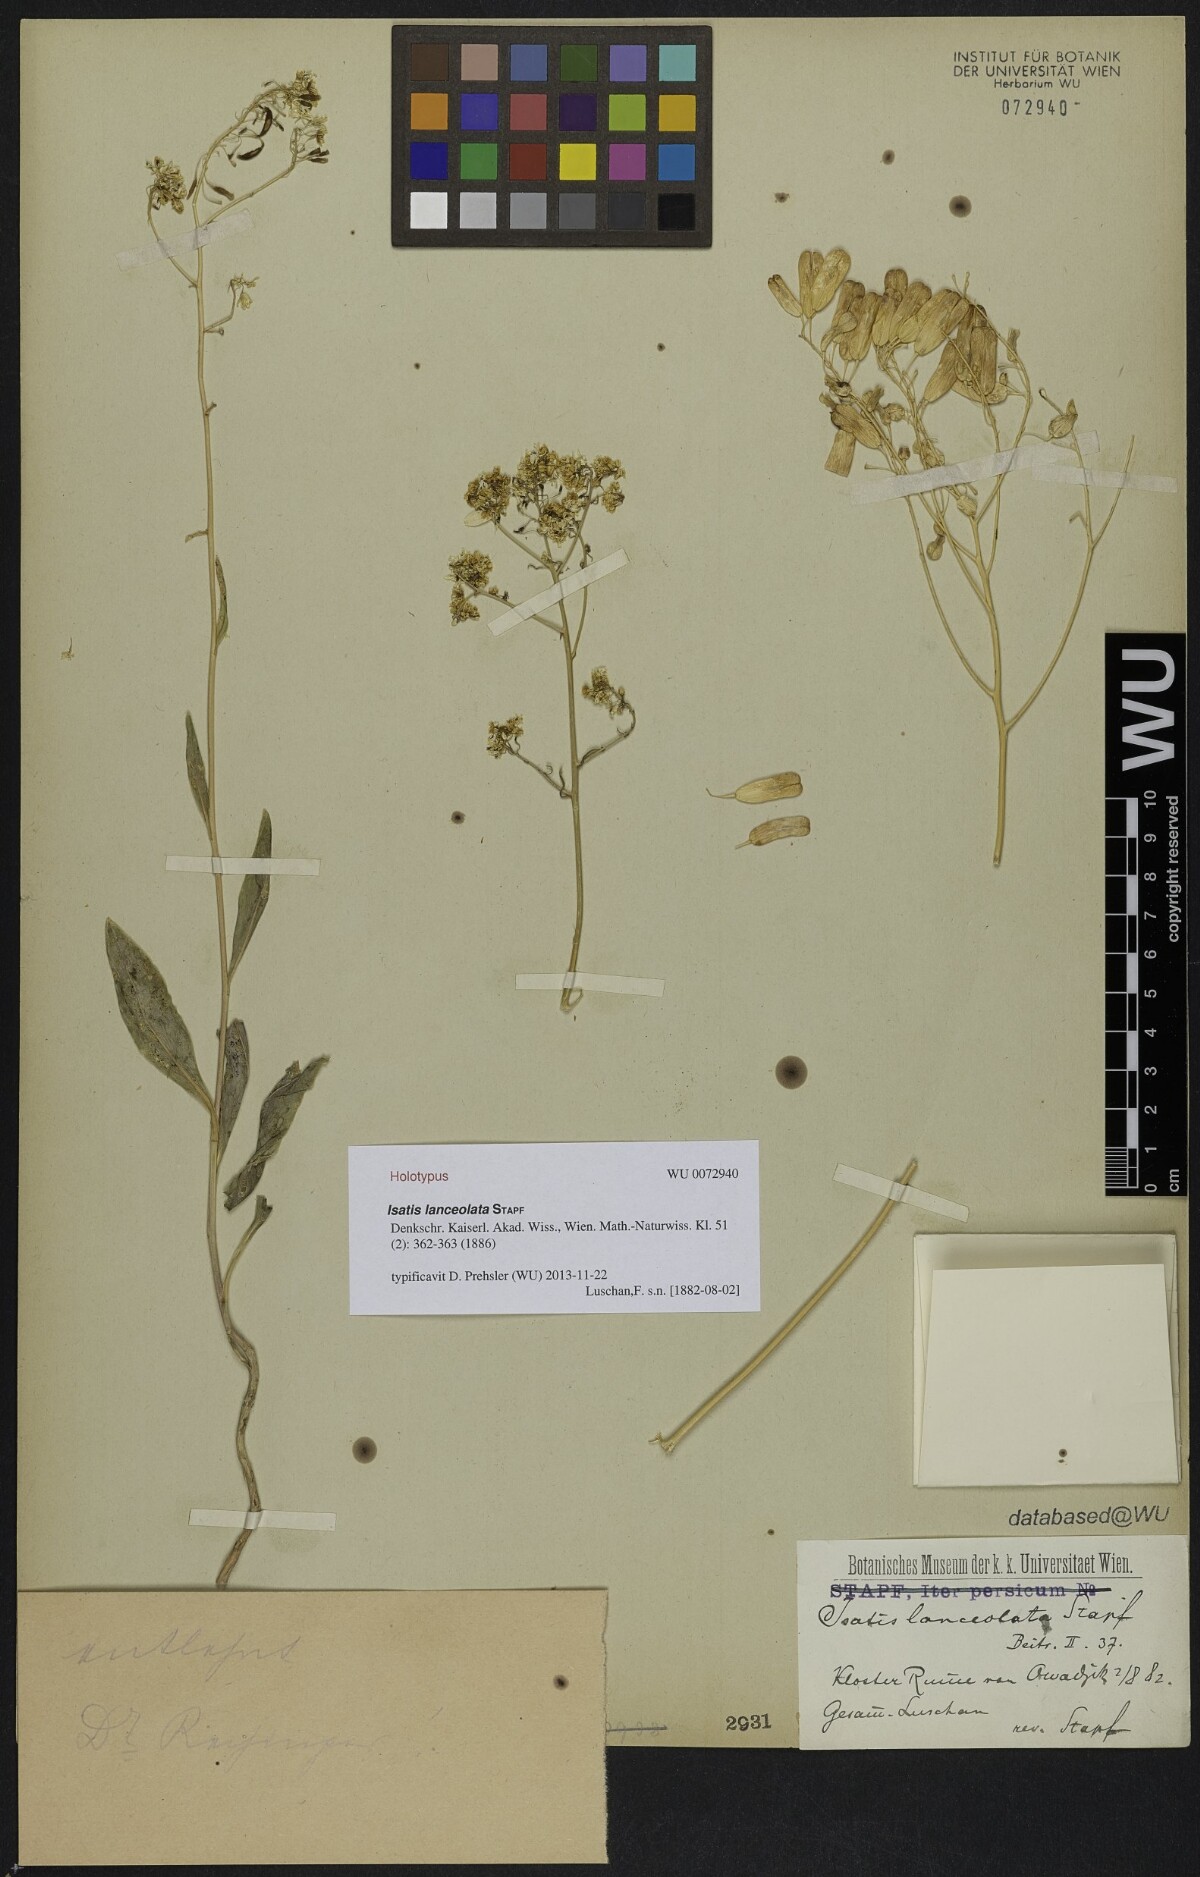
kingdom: Plantae
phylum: Tracheophyta
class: Magnoliopsida
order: Brassicales
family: Brassicaceae
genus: Isatis
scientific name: Isatis glauca
